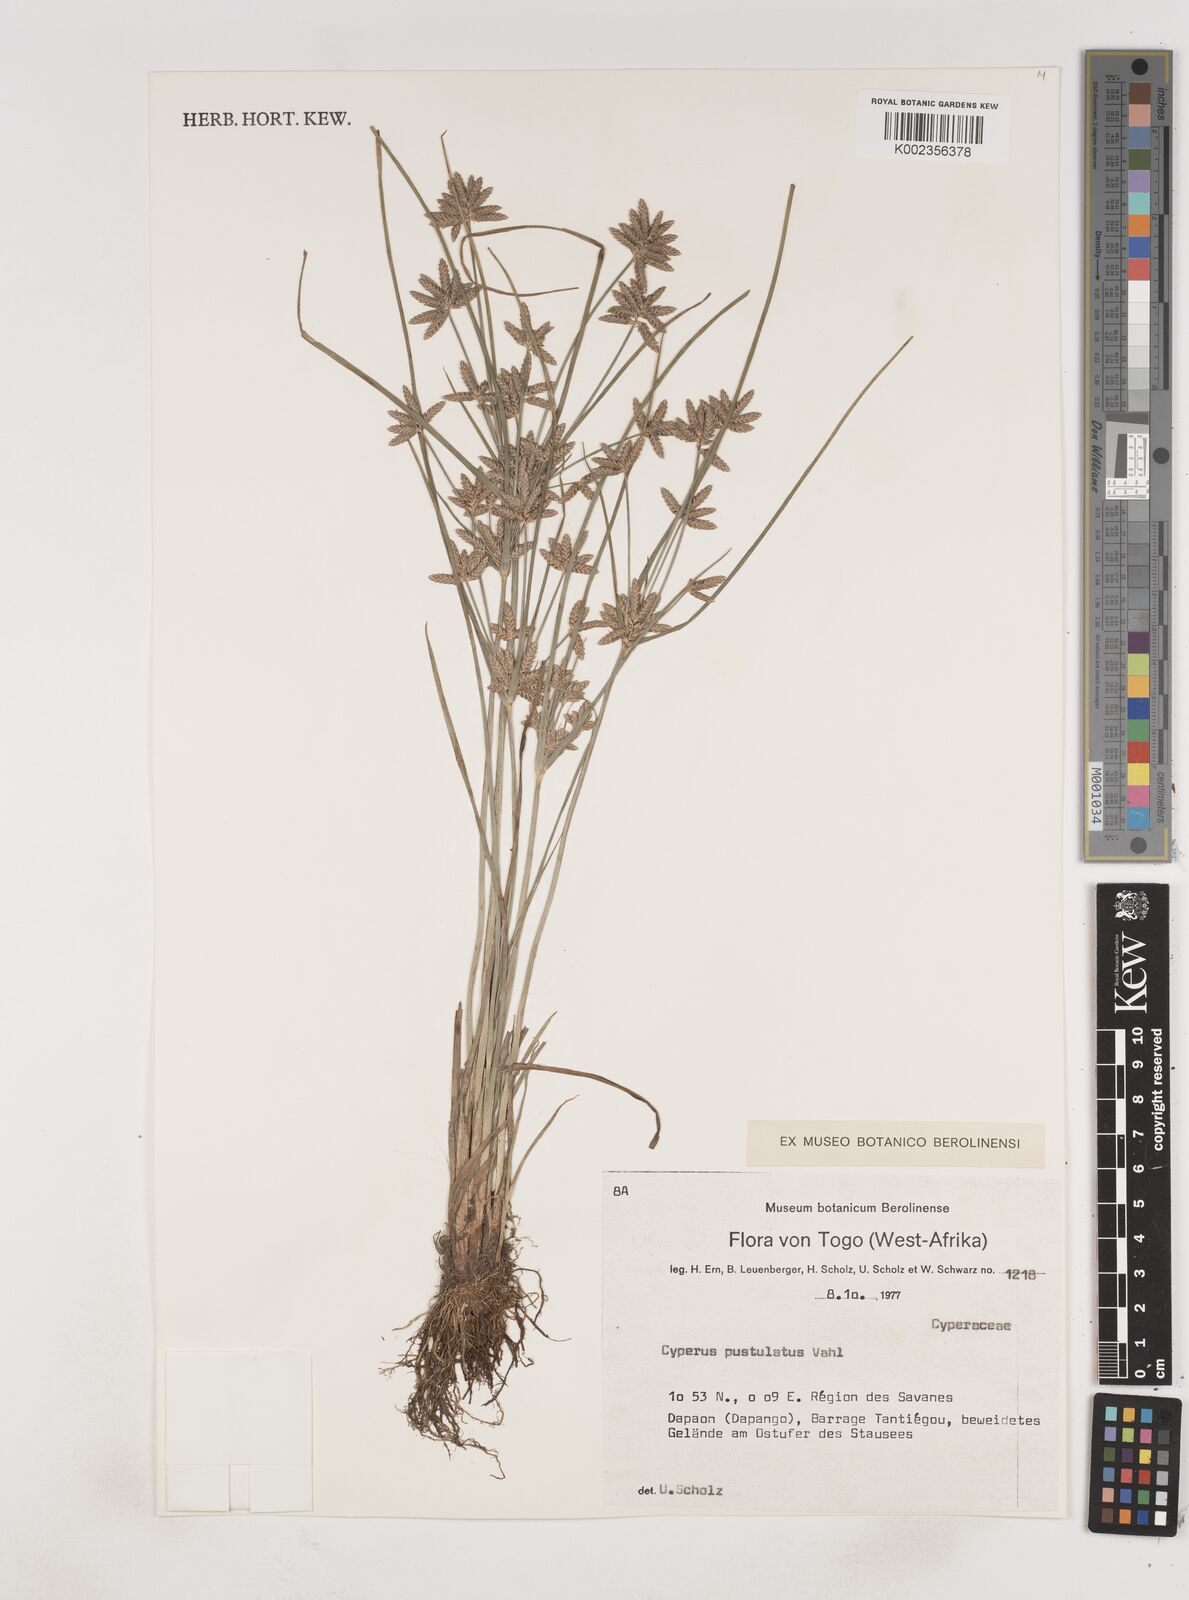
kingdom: Plantae
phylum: Tracheophyta
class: Liliopsida
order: Poales
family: Cyperaceae
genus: Cyperus
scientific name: Cyperus pustulatus
